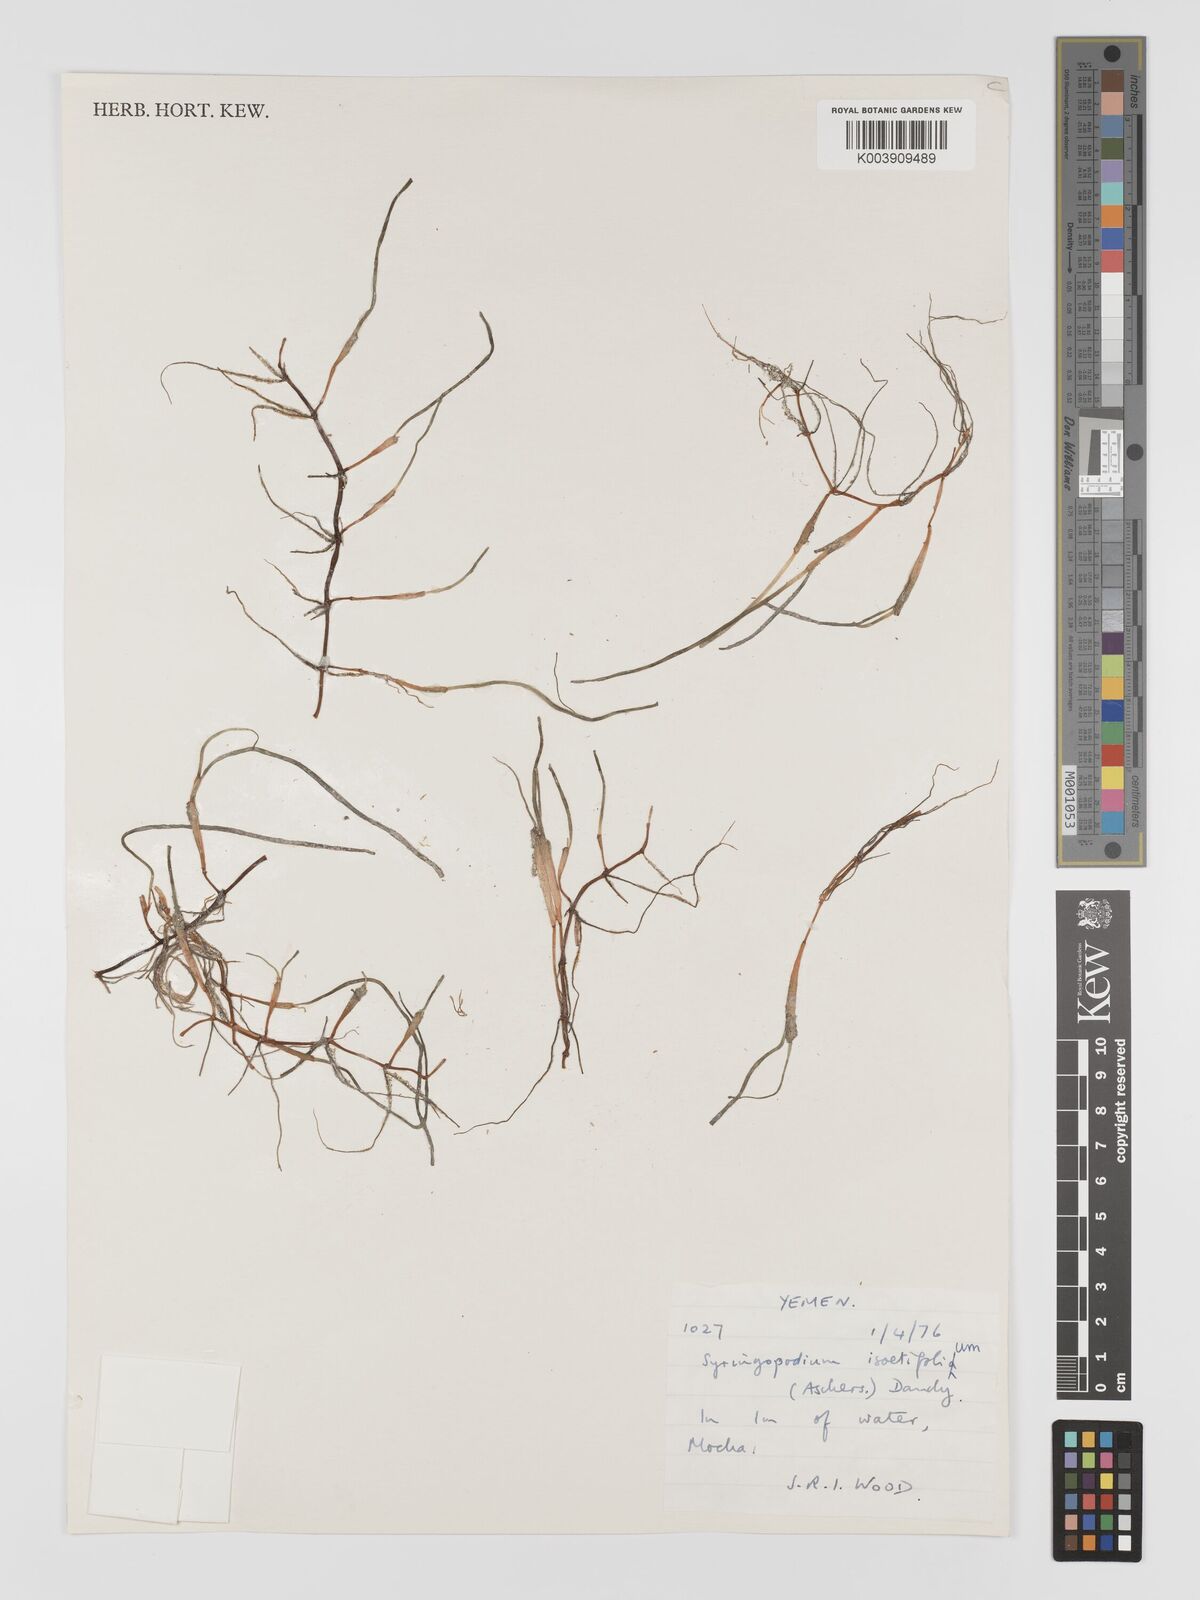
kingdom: Plantae
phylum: Tracheophyta
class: Liliopsida
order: Alismatales
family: Cymodoceaceae
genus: Syringodium
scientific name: Syringodium isoetifolium
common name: Species code: si
